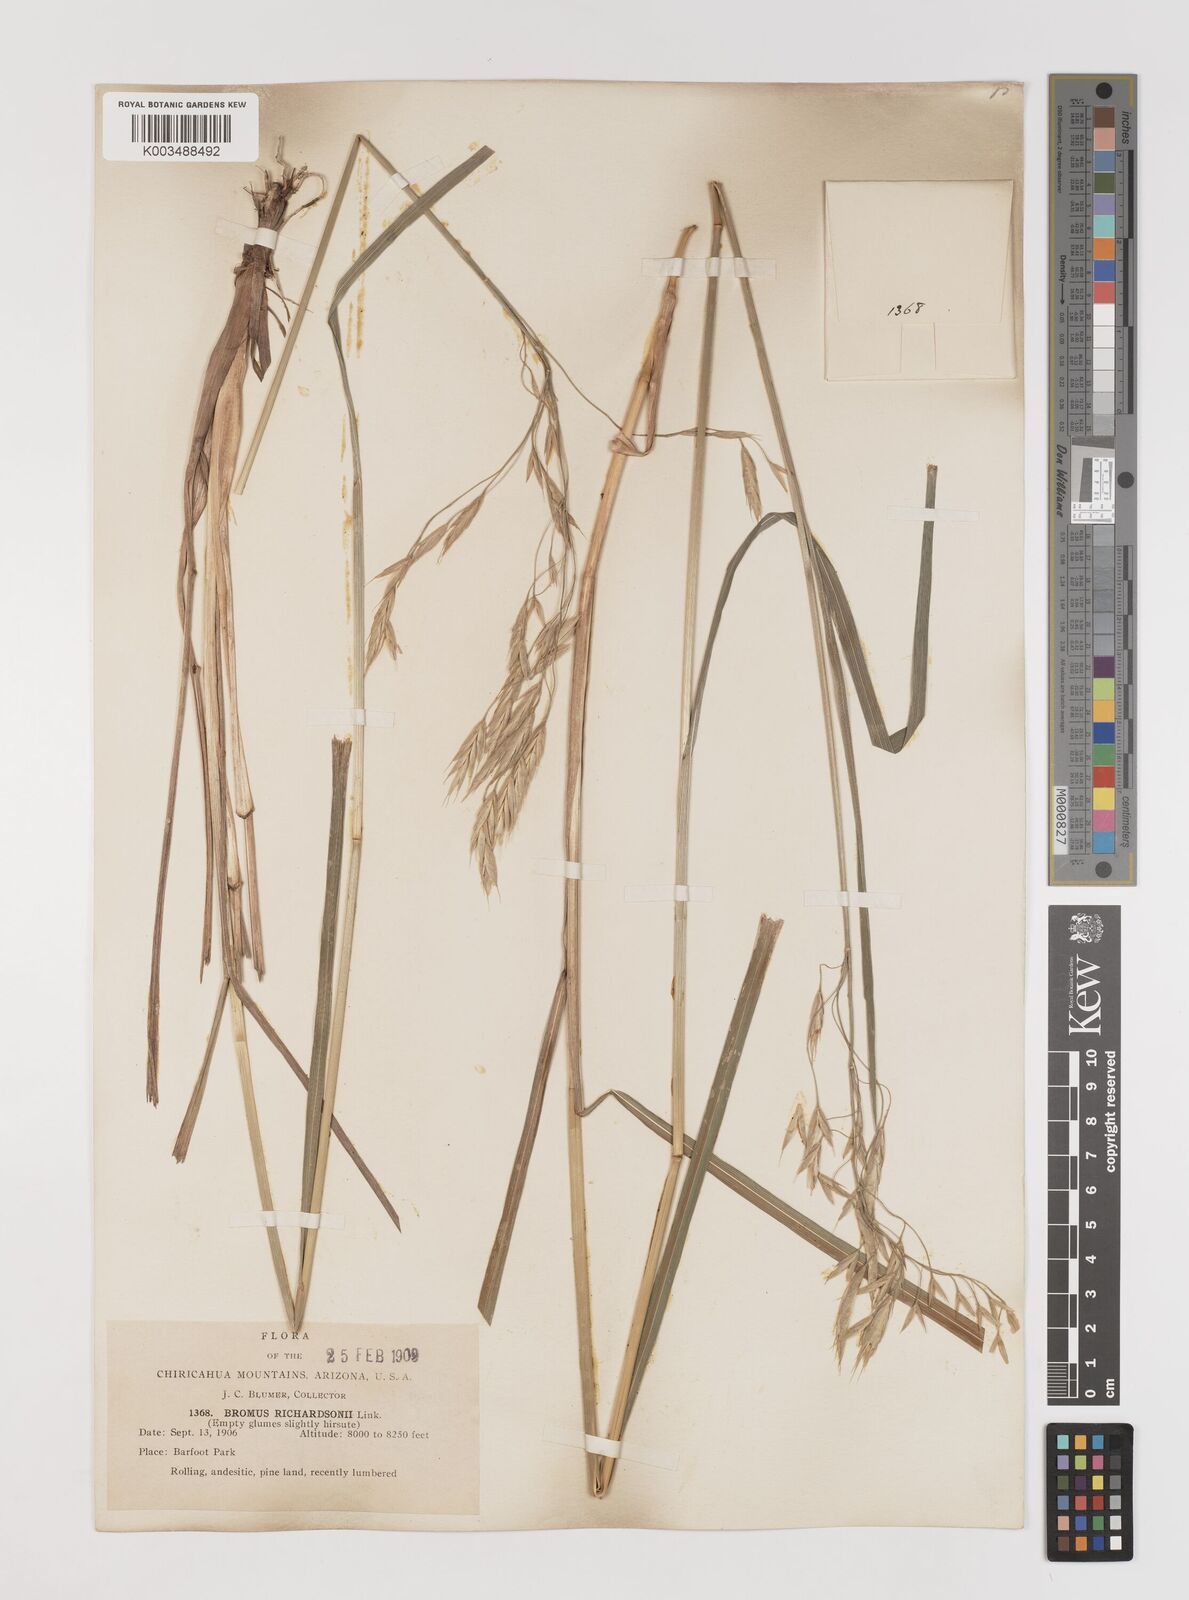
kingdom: Plantae
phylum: Tracheophyta
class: Liliopsida
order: Poales
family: Poaceae
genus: Bromus
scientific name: Bromus richardsonii
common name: Richardson's brome
